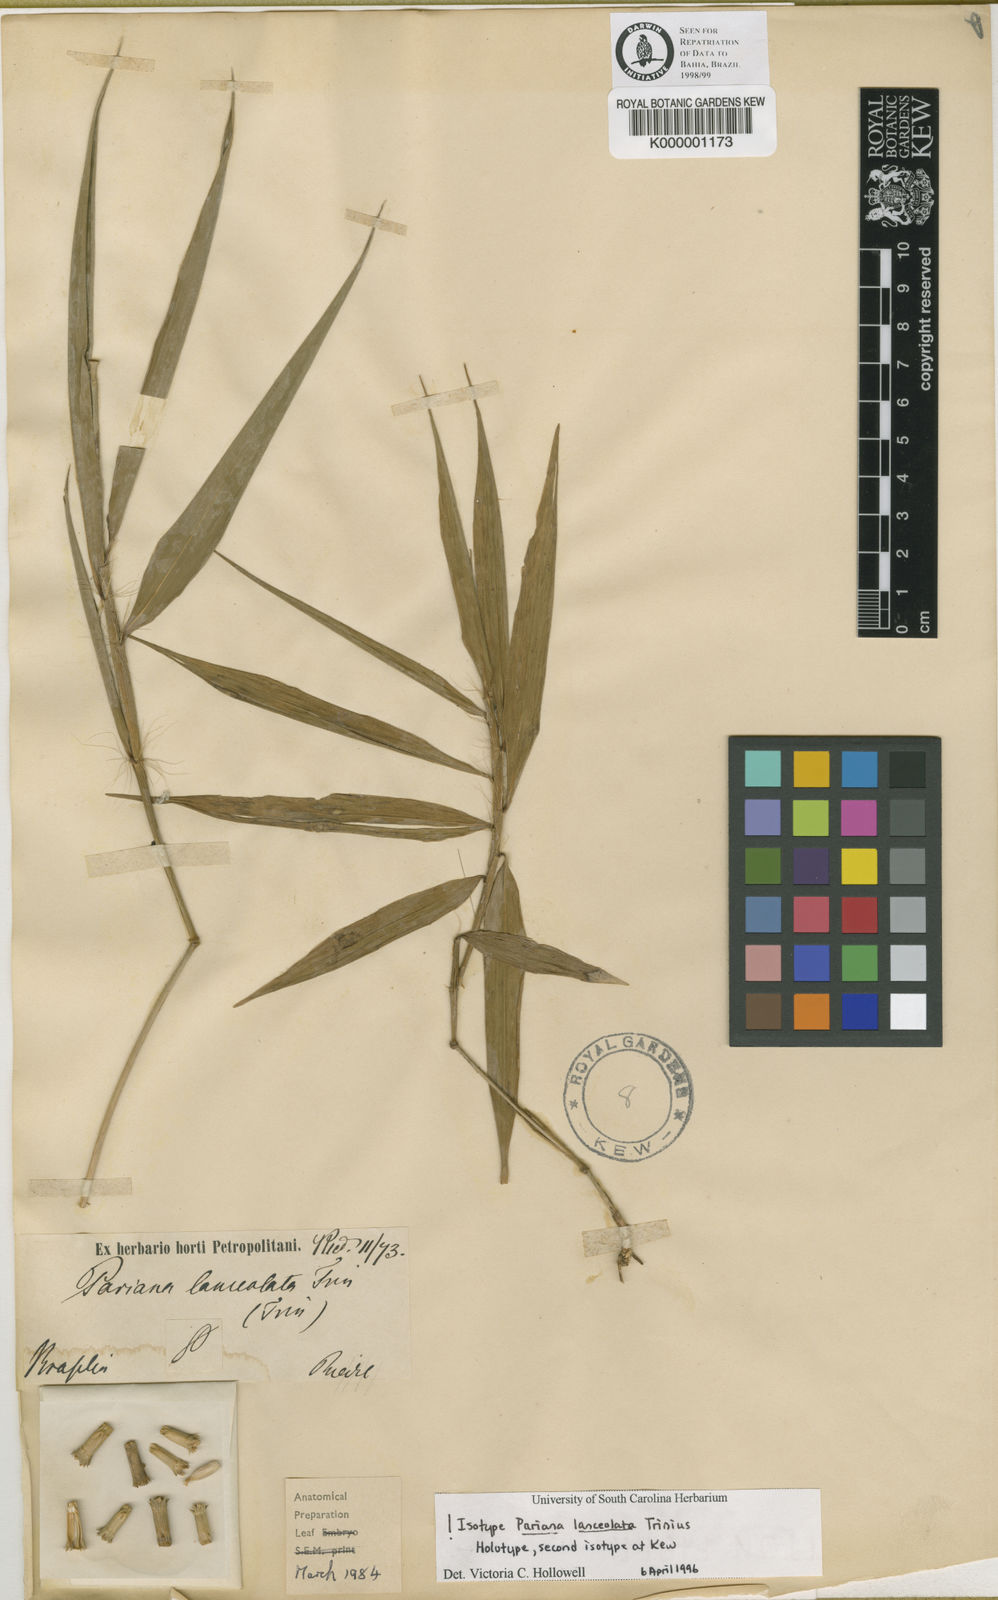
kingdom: Plantae
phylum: Tracheophyta
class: Liliopsida
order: Poales
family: Poaceae
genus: Parianella
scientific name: Parianella lanceolata
